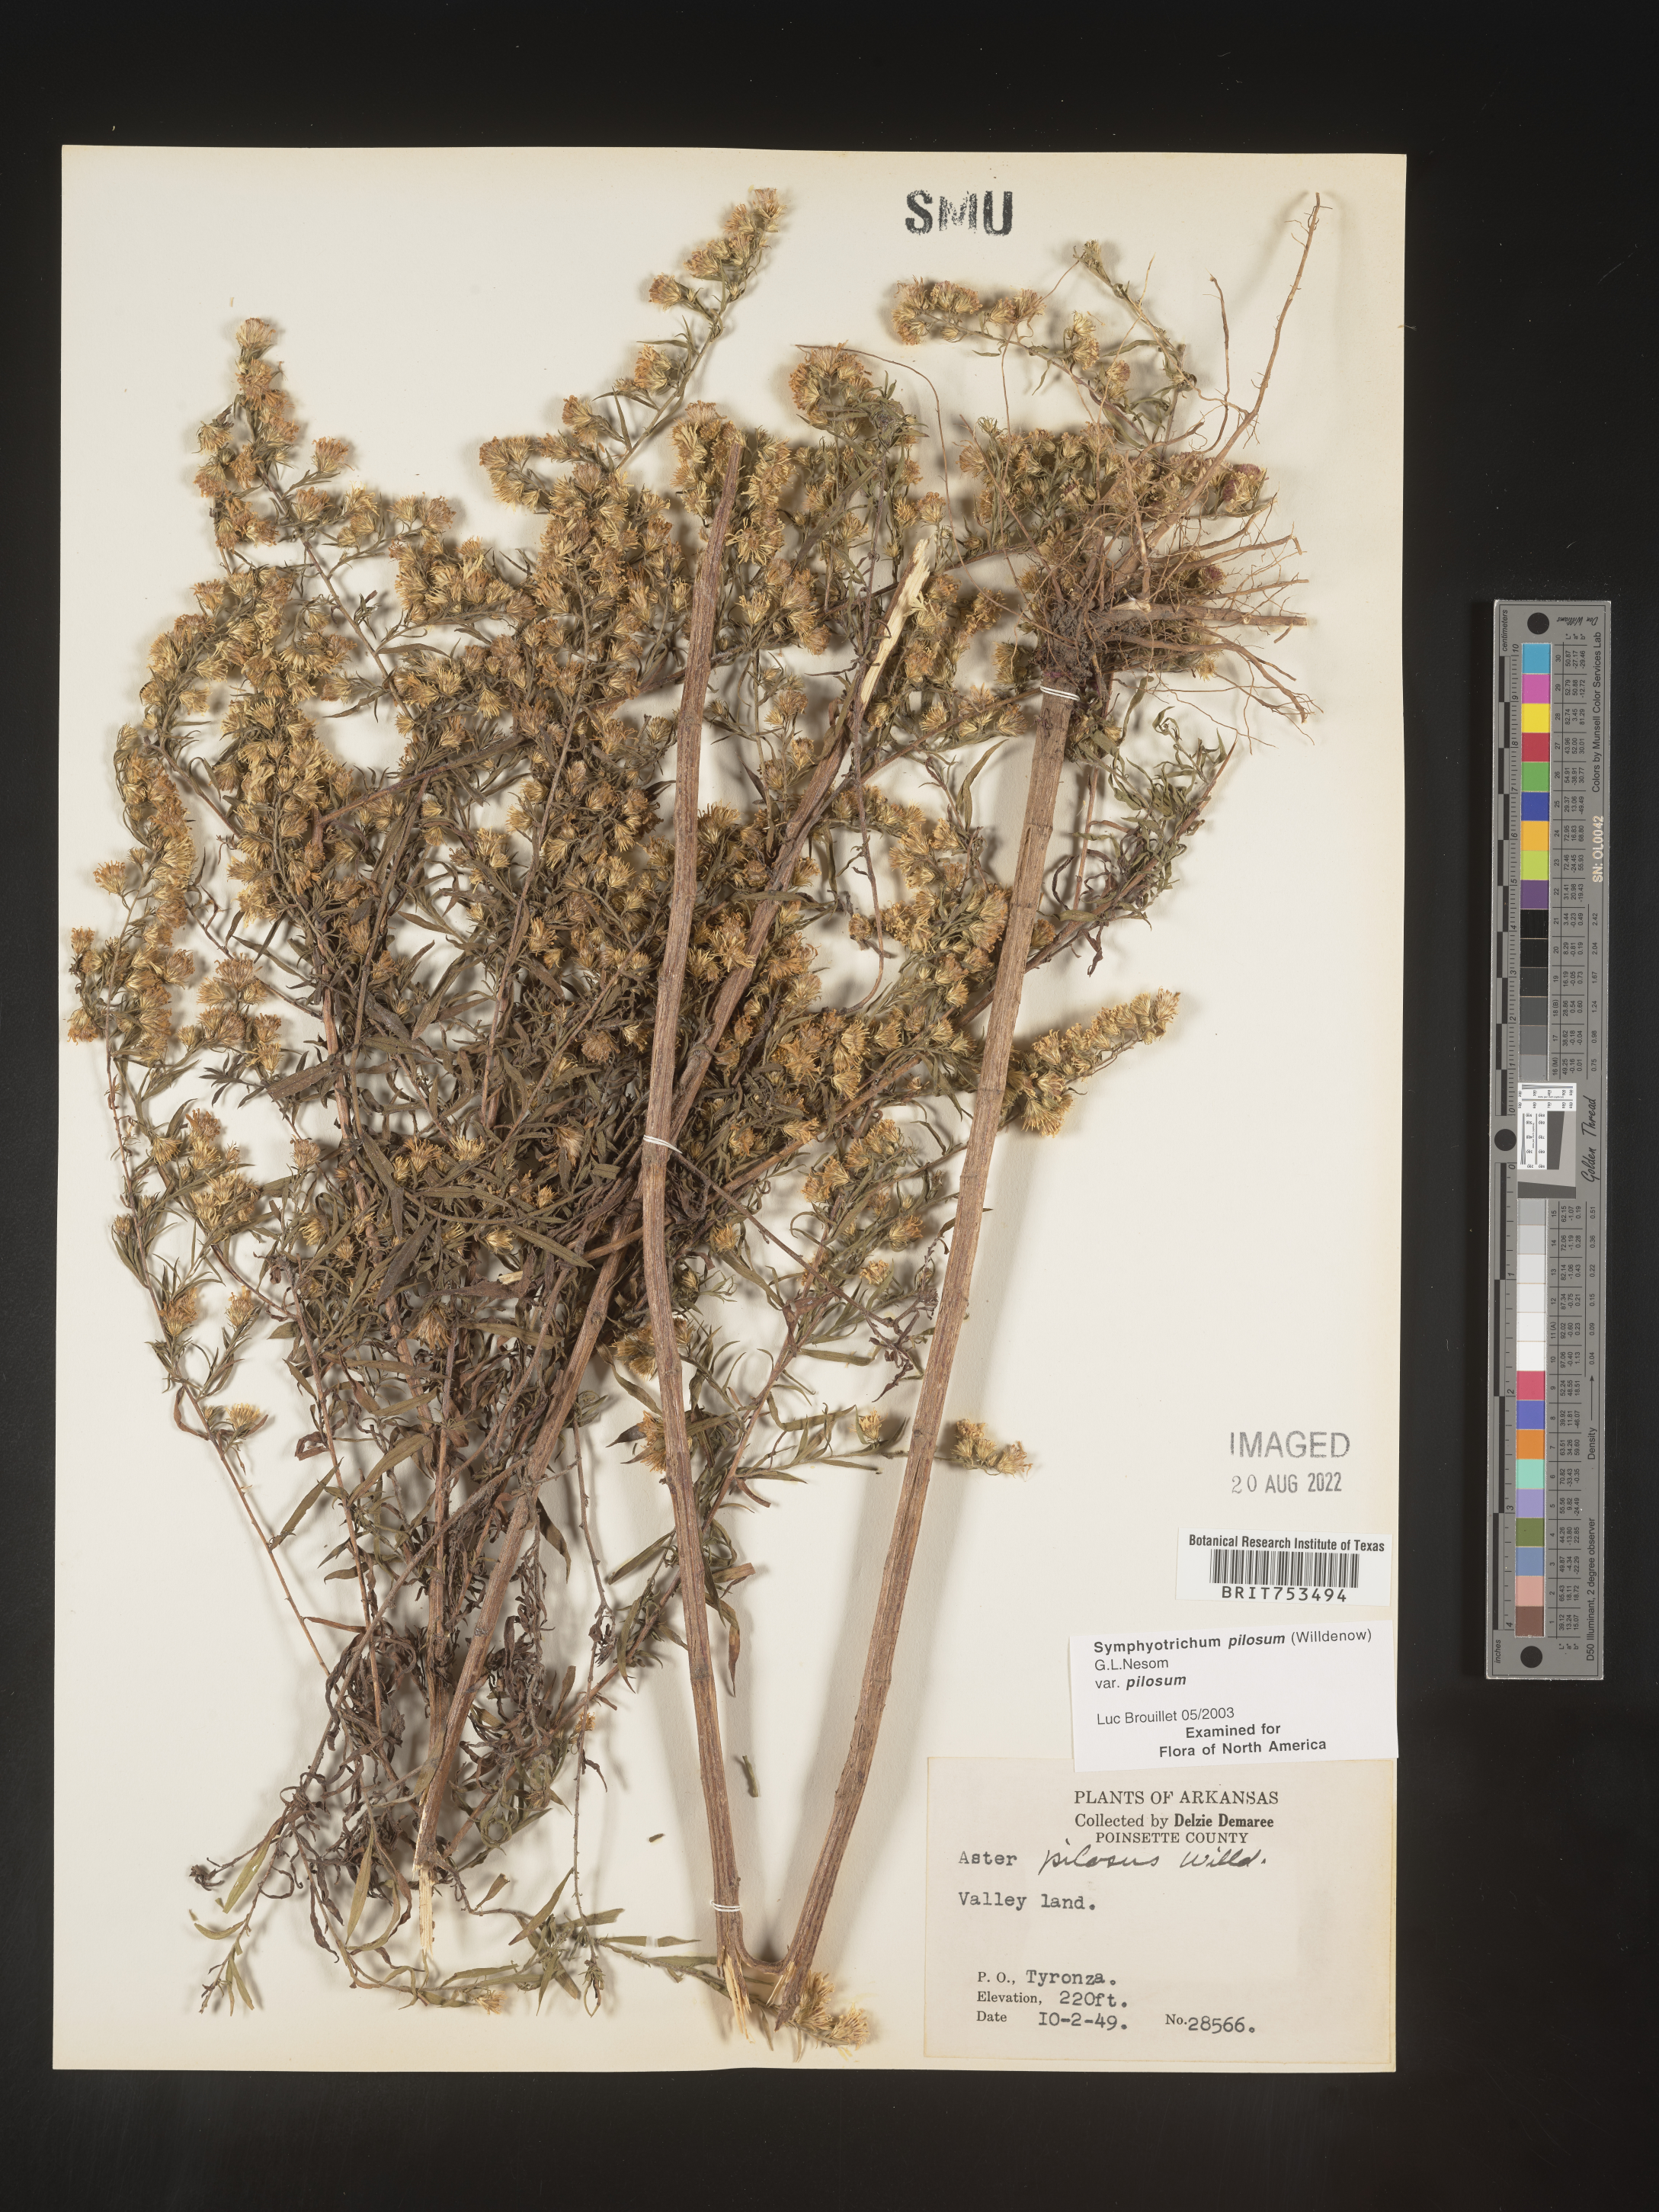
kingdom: Plantae
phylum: Tracheophyta
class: Magnoliopsida
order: Asterales
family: Asteraceae
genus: Symphyotrichum
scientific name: Symphyotrichum pilosum
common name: Awl aster
